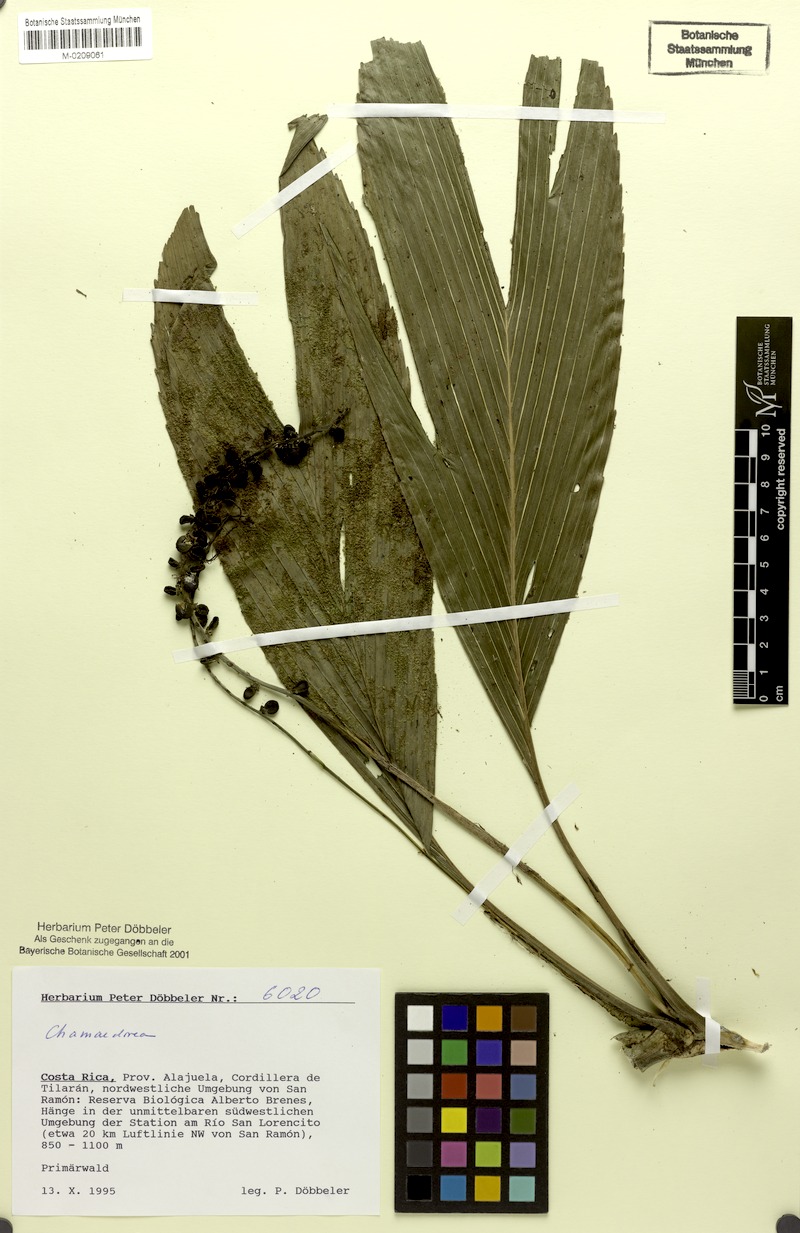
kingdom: Plantae
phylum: Tracheophyta
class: Liliopsida
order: Arecales
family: Arecaceae
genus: Chamaedorea
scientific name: Chamaedorea
